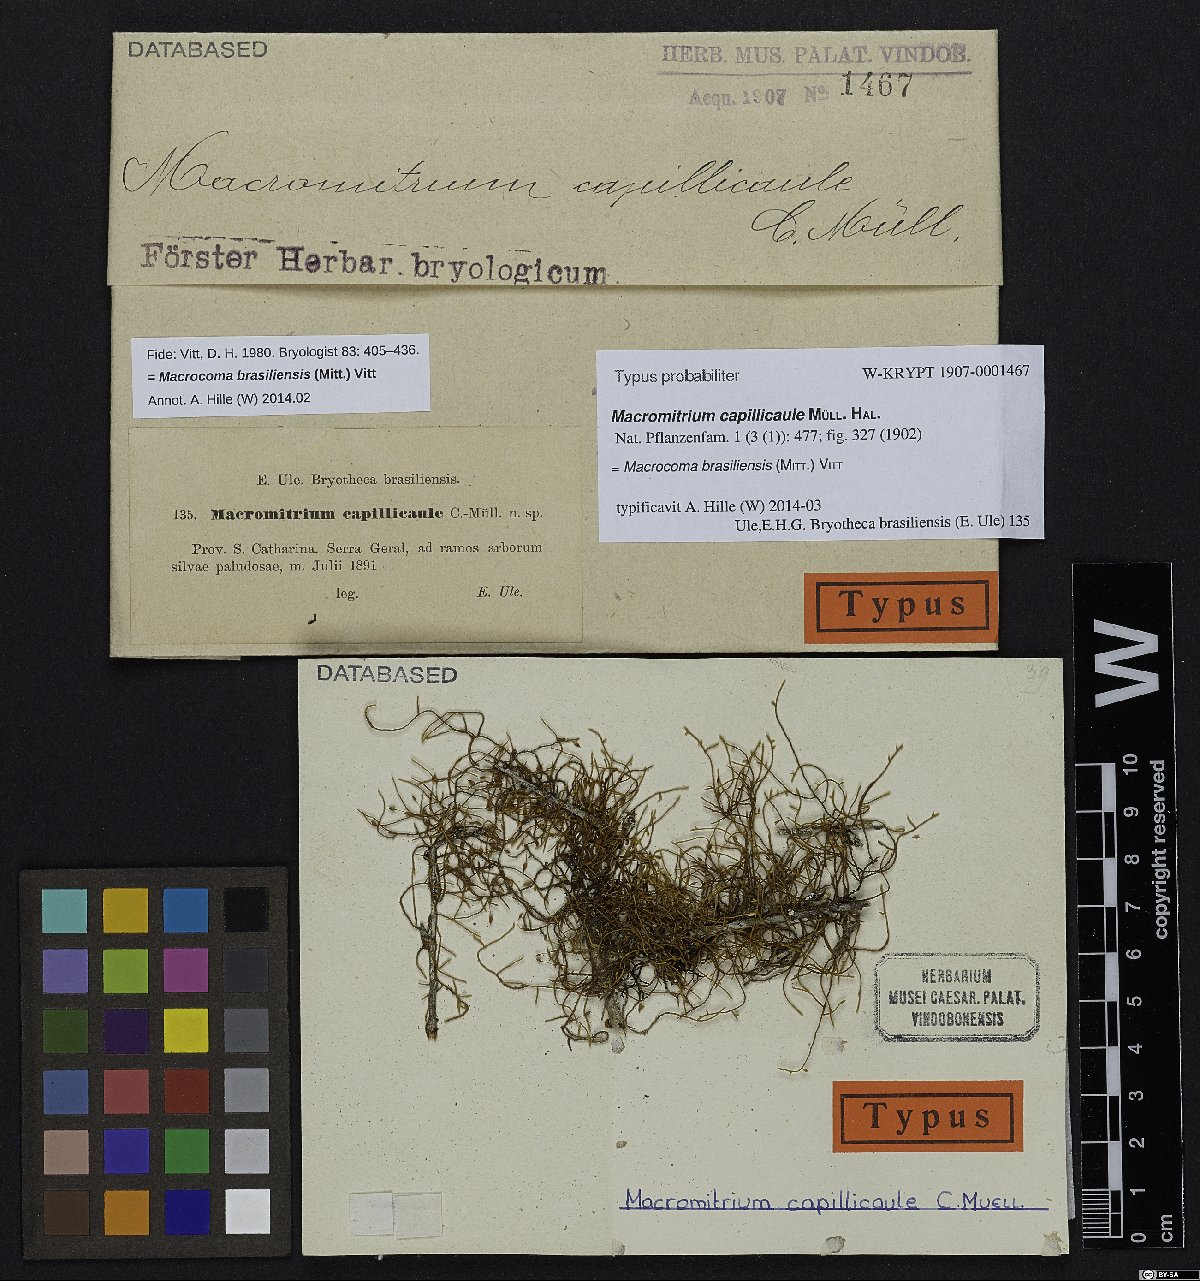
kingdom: Plantae
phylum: Bryophyta
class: Bryopsida
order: Orthotrichales
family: Orthotrichaceae
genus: Macrocoma
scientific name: Macrocoma brasiliensis
